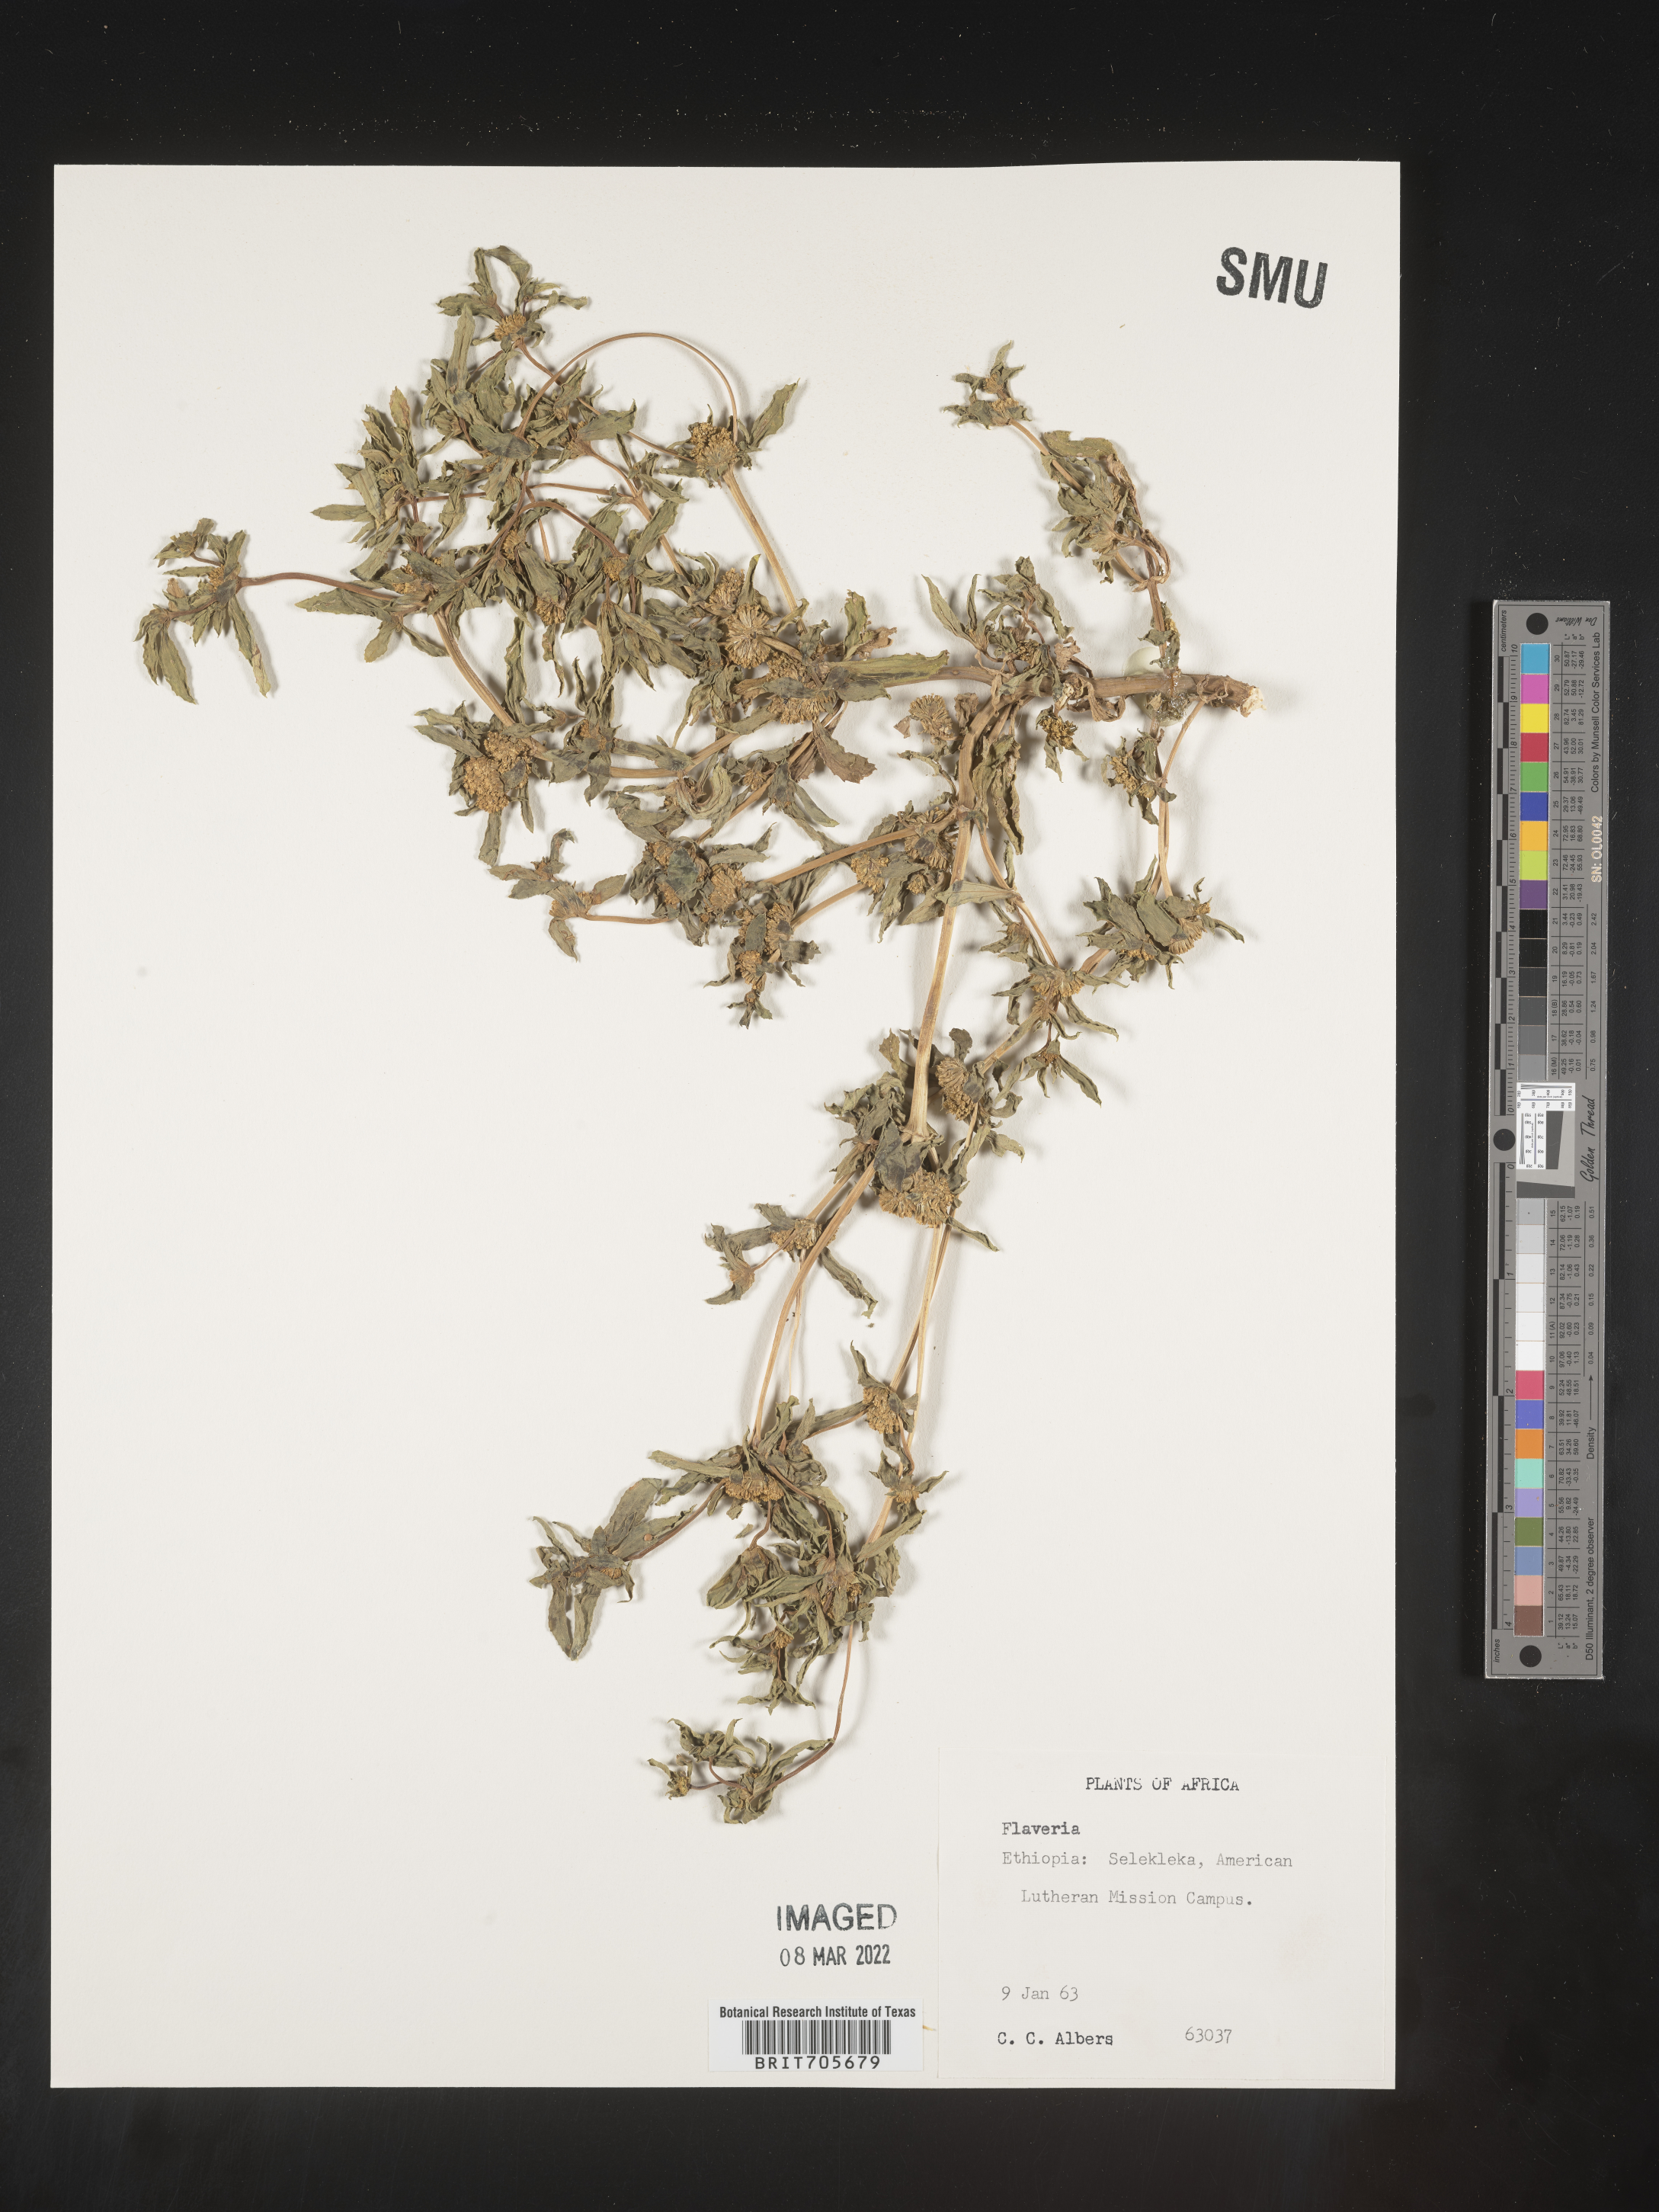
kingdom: Plantae
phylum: Tracheophyta
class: Magnoliopsida
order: Asterales
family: Asteraceae
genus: Flaveria
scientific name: Flaveria
